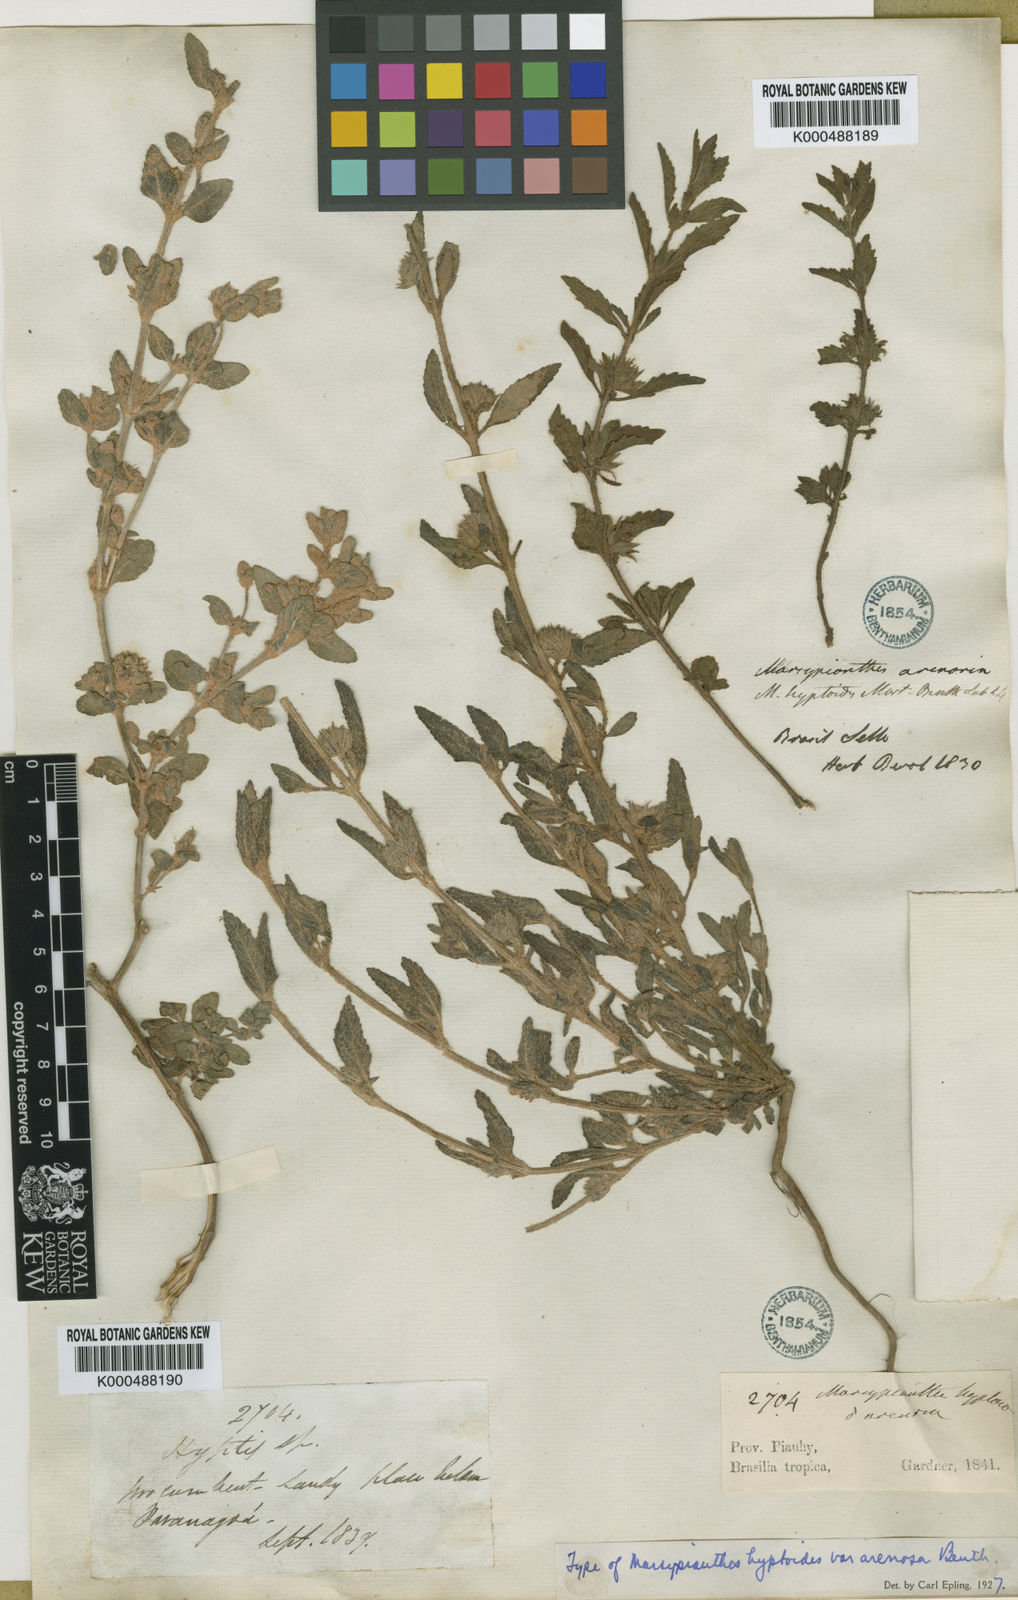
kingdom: Plantae
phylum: Tracheophyta
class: Magnoliopsida
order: Lamiales
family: Lamiaceae
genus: Marsypianthes
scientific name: Marsypianthes chamaedrys
